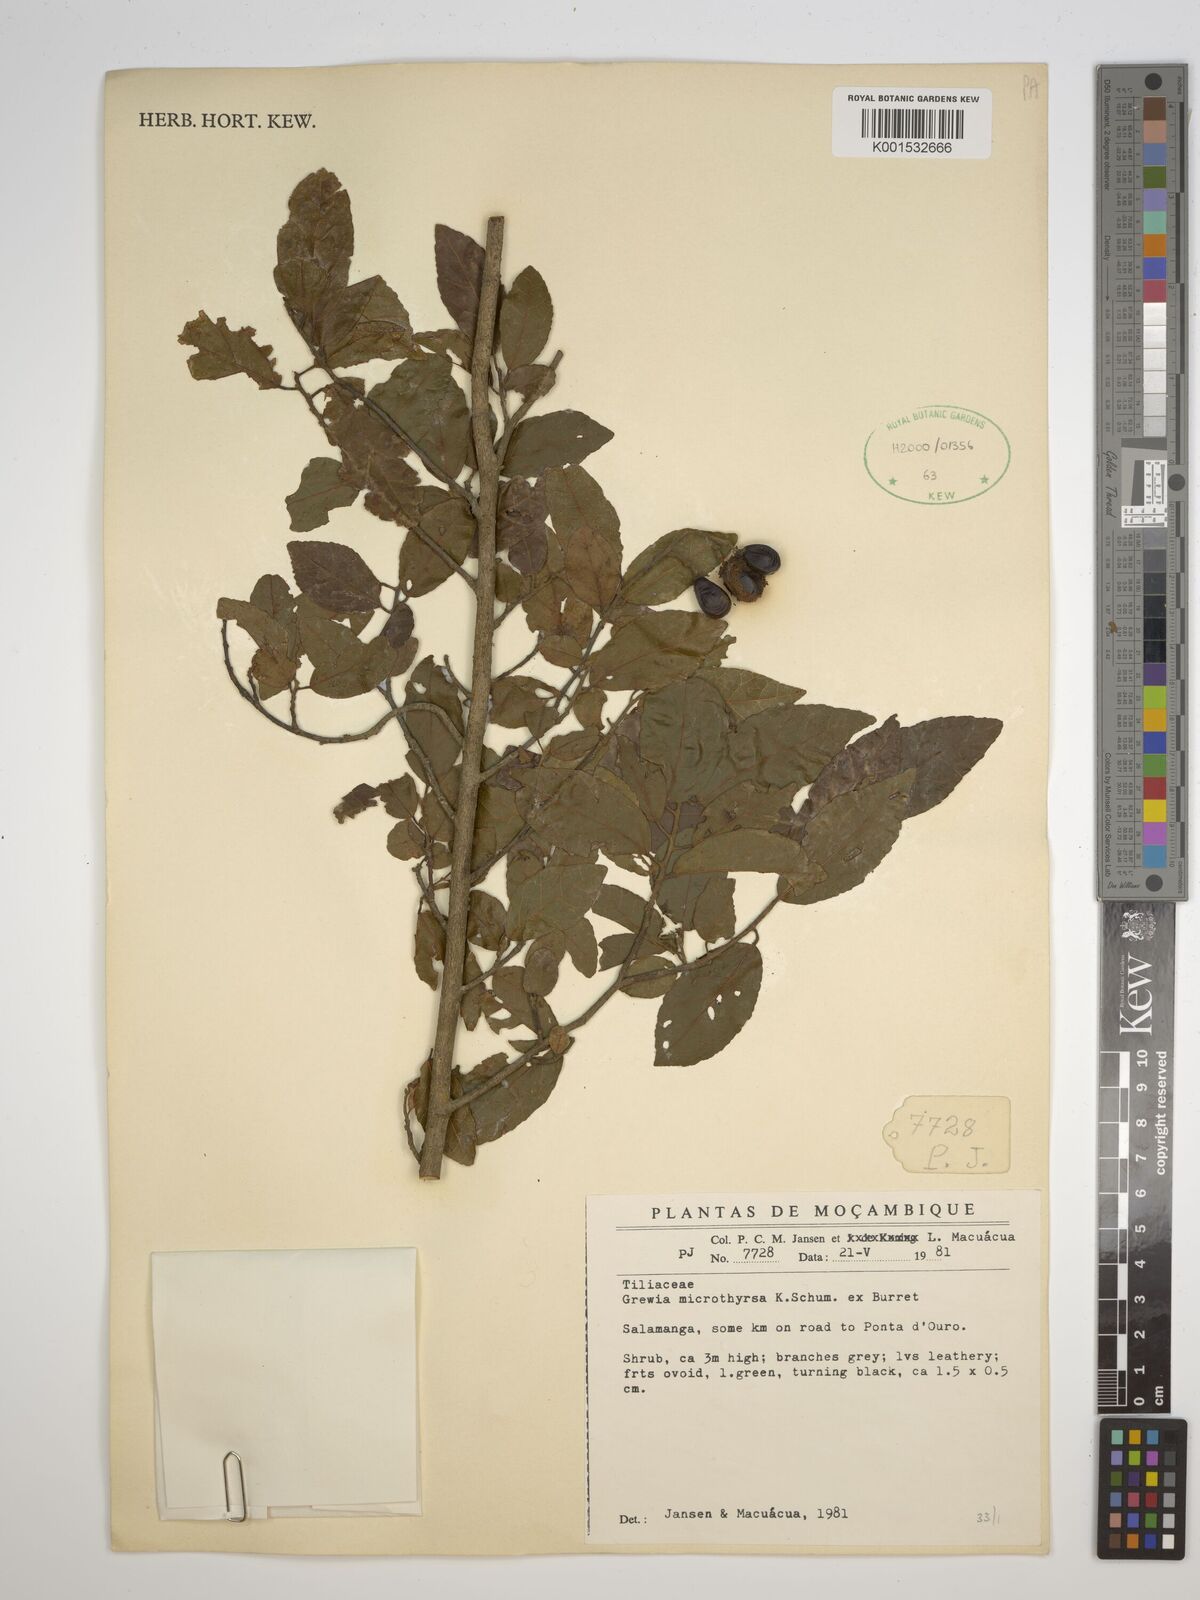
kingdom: Plantae
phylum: Tracheophyta
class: Magnoliopsida
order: Malvales
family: Malvaceae
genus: Microcos
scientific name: Microcos microthyrsa
